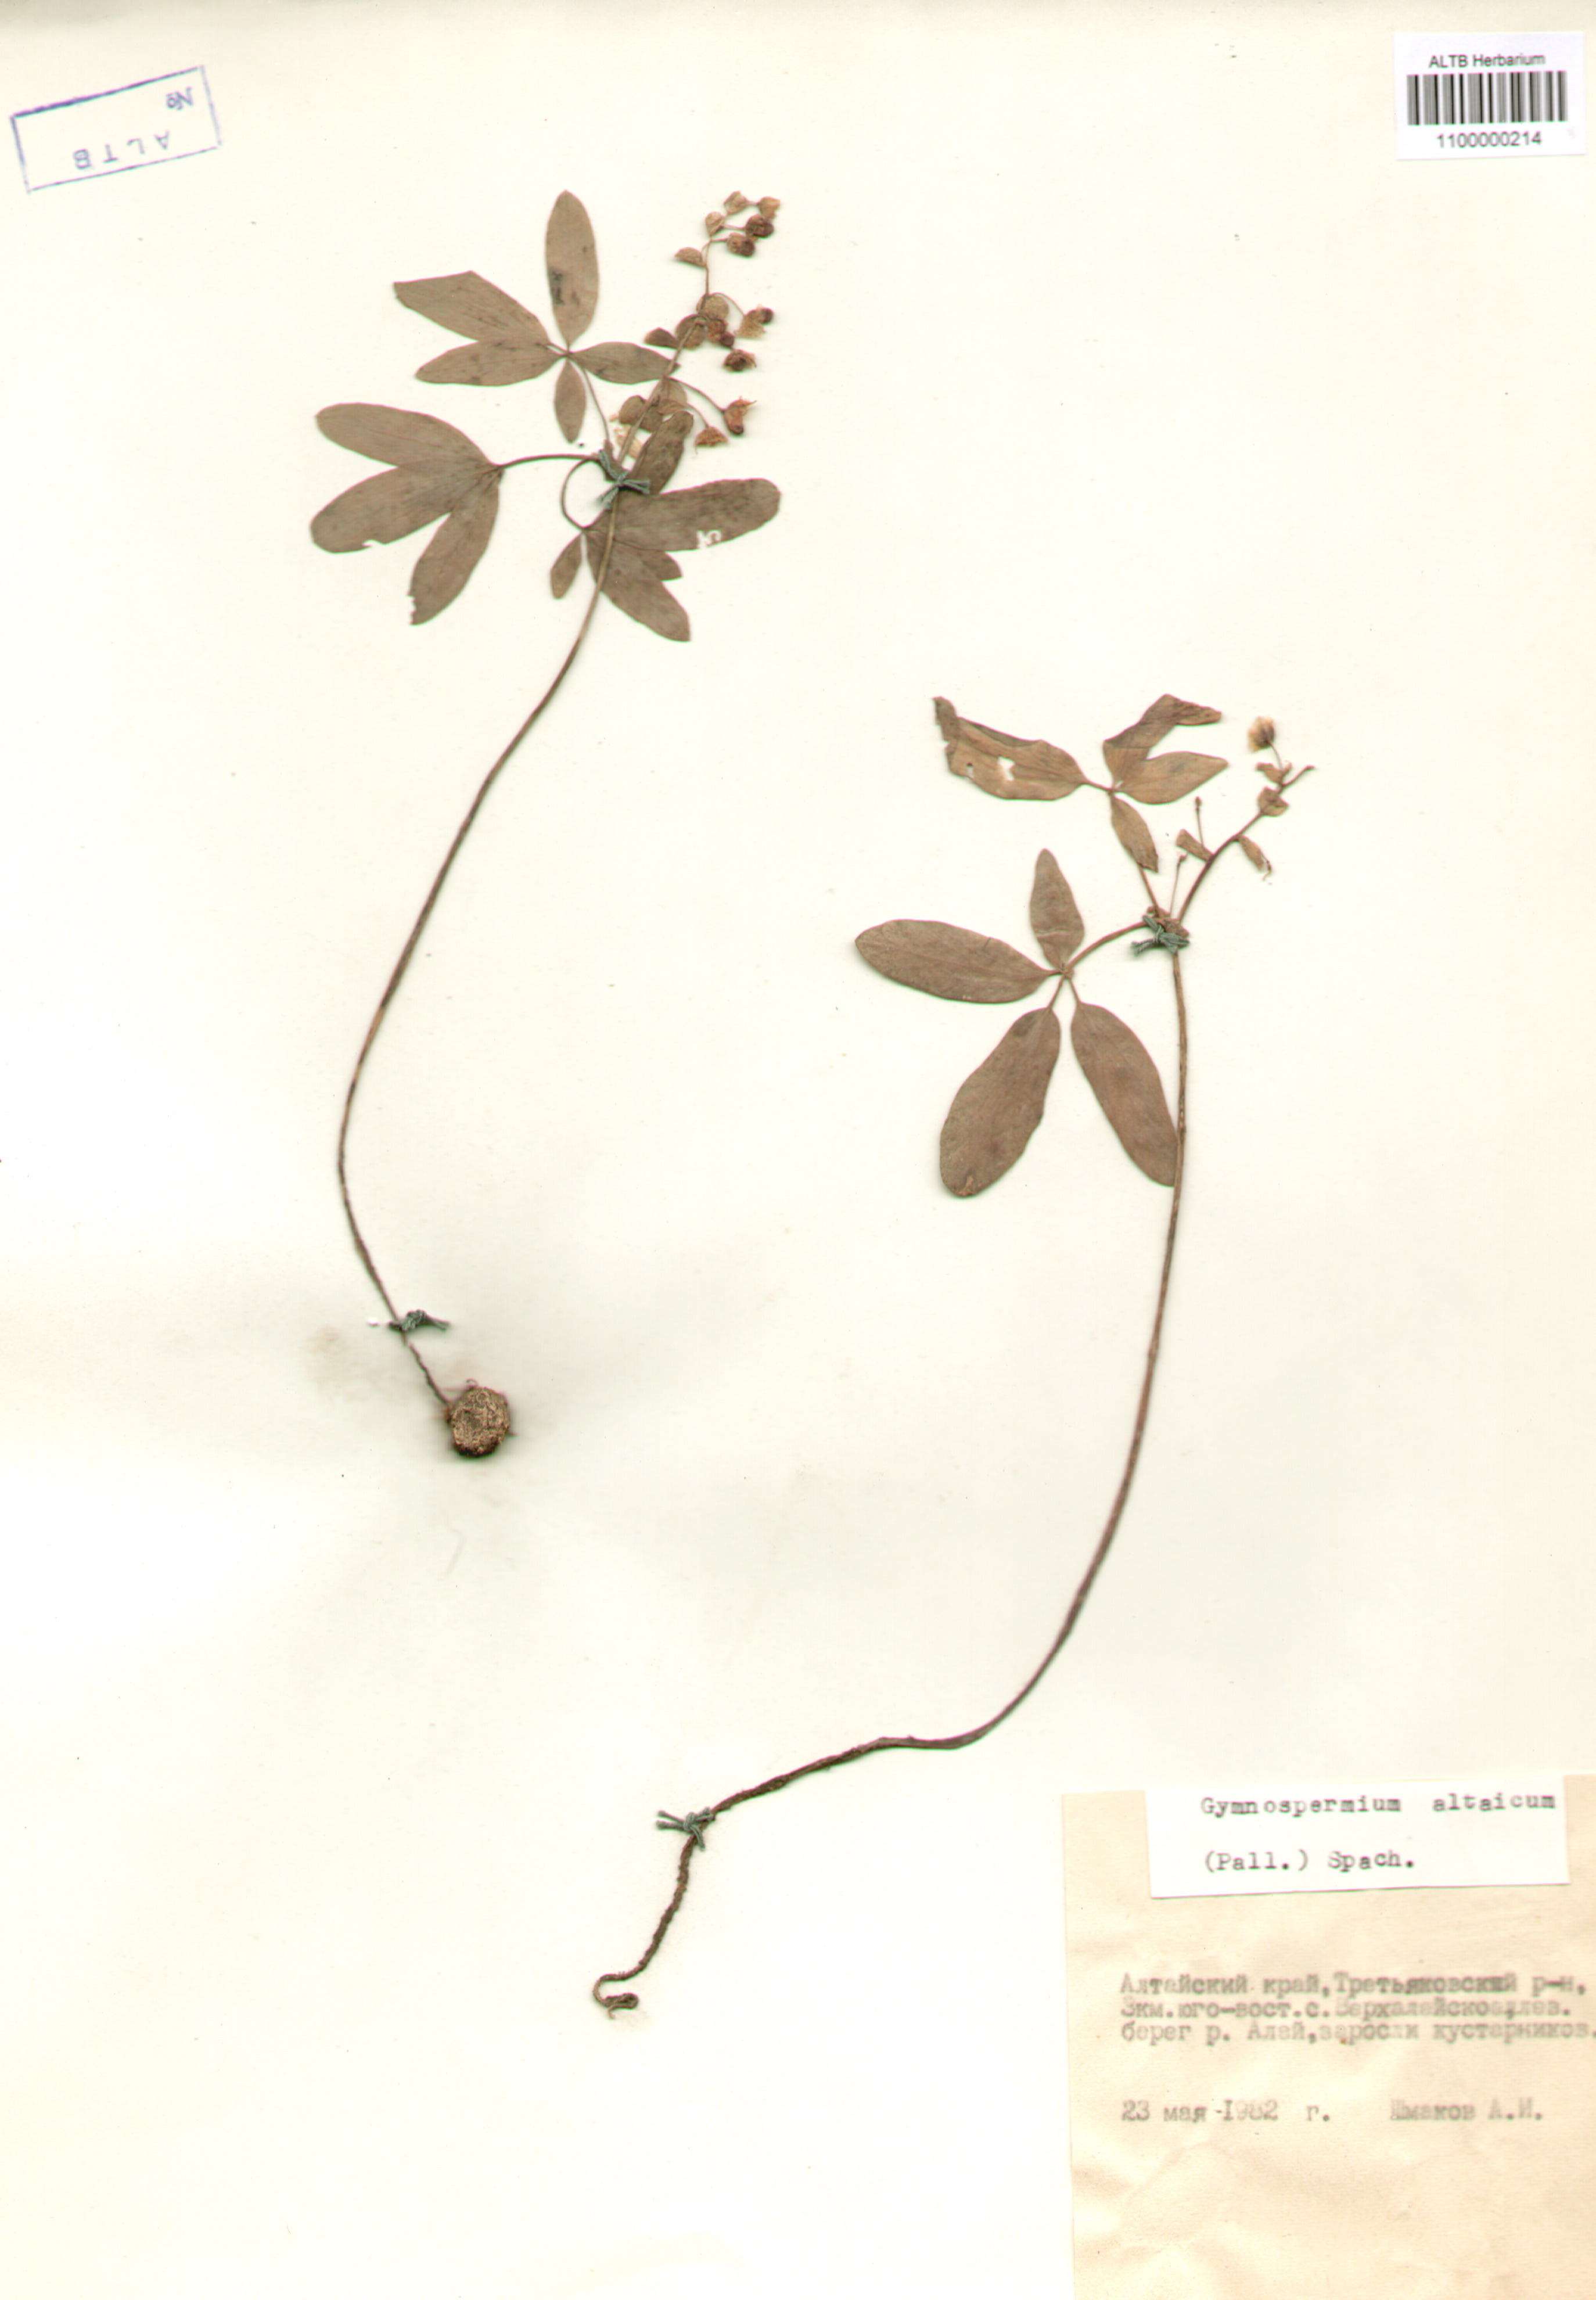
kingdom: Plantae
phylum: Tracheophyta
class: Magnoliopsida
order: Ranunculales
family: Berberidaceae
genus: Gymnospermium
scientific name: Gymnospermium altaicum
